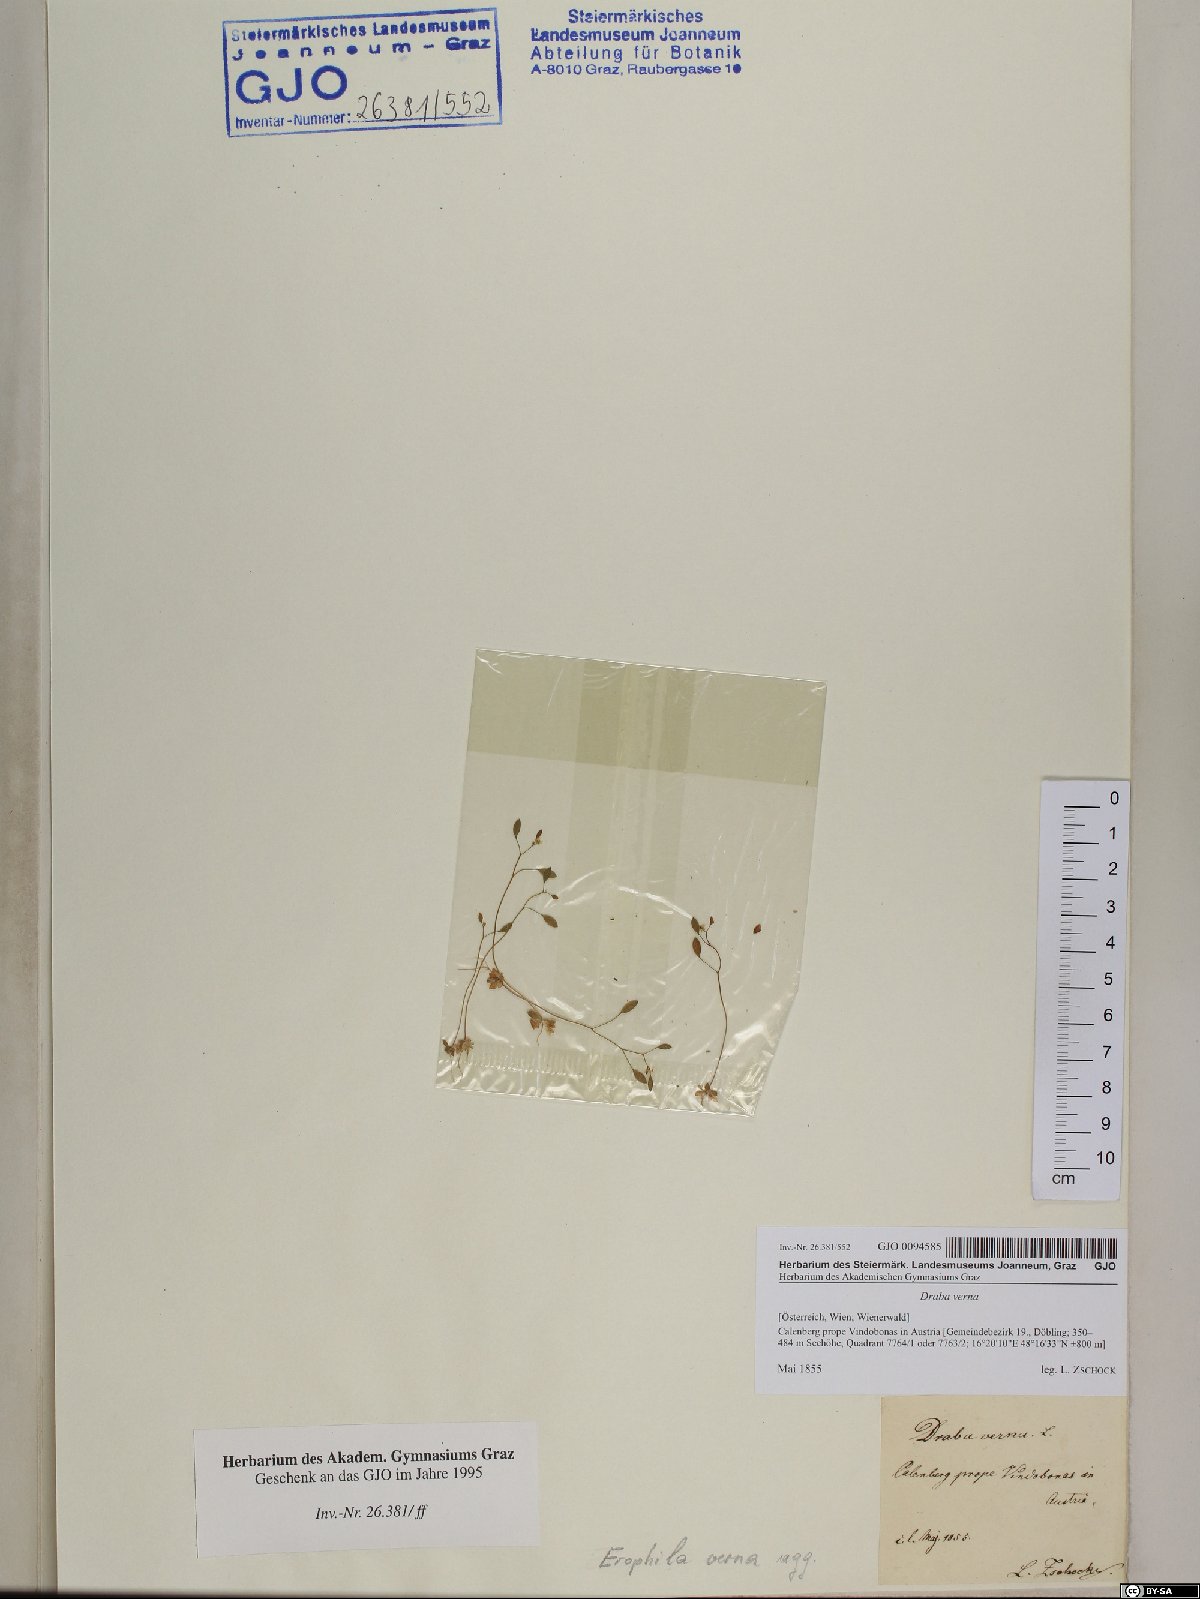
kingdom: Plantae
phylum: Tracheophyta
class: Magnoliopsida
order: Brassicales
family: Brassicaceae
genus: Draba
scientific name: Draba verna
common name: Spring draba
